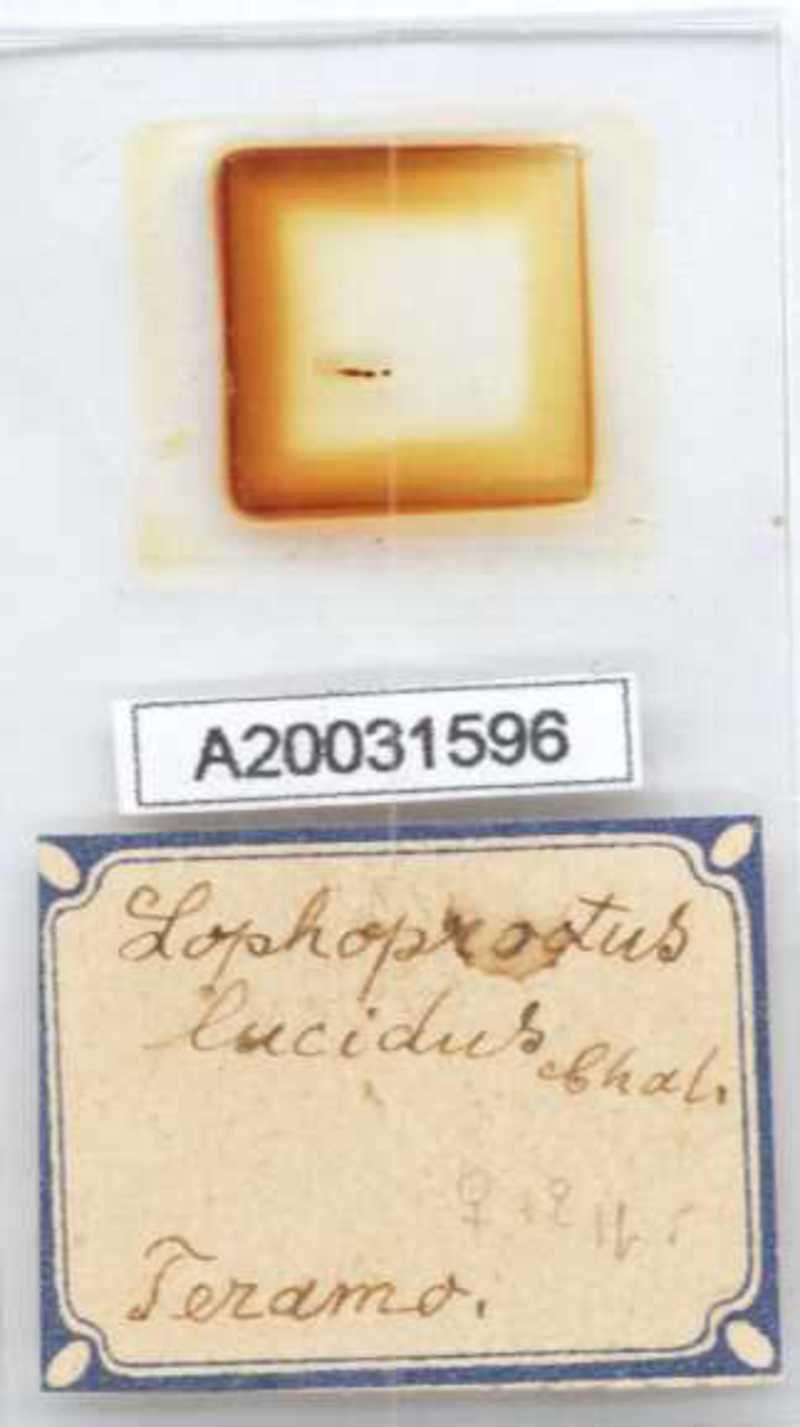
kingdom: Animalia
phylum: Arthropoda
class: Diplopoda
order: Polyxenida
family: Lophoproctidae
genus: Lophoproctus
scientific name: Lophoproctus lucidus
